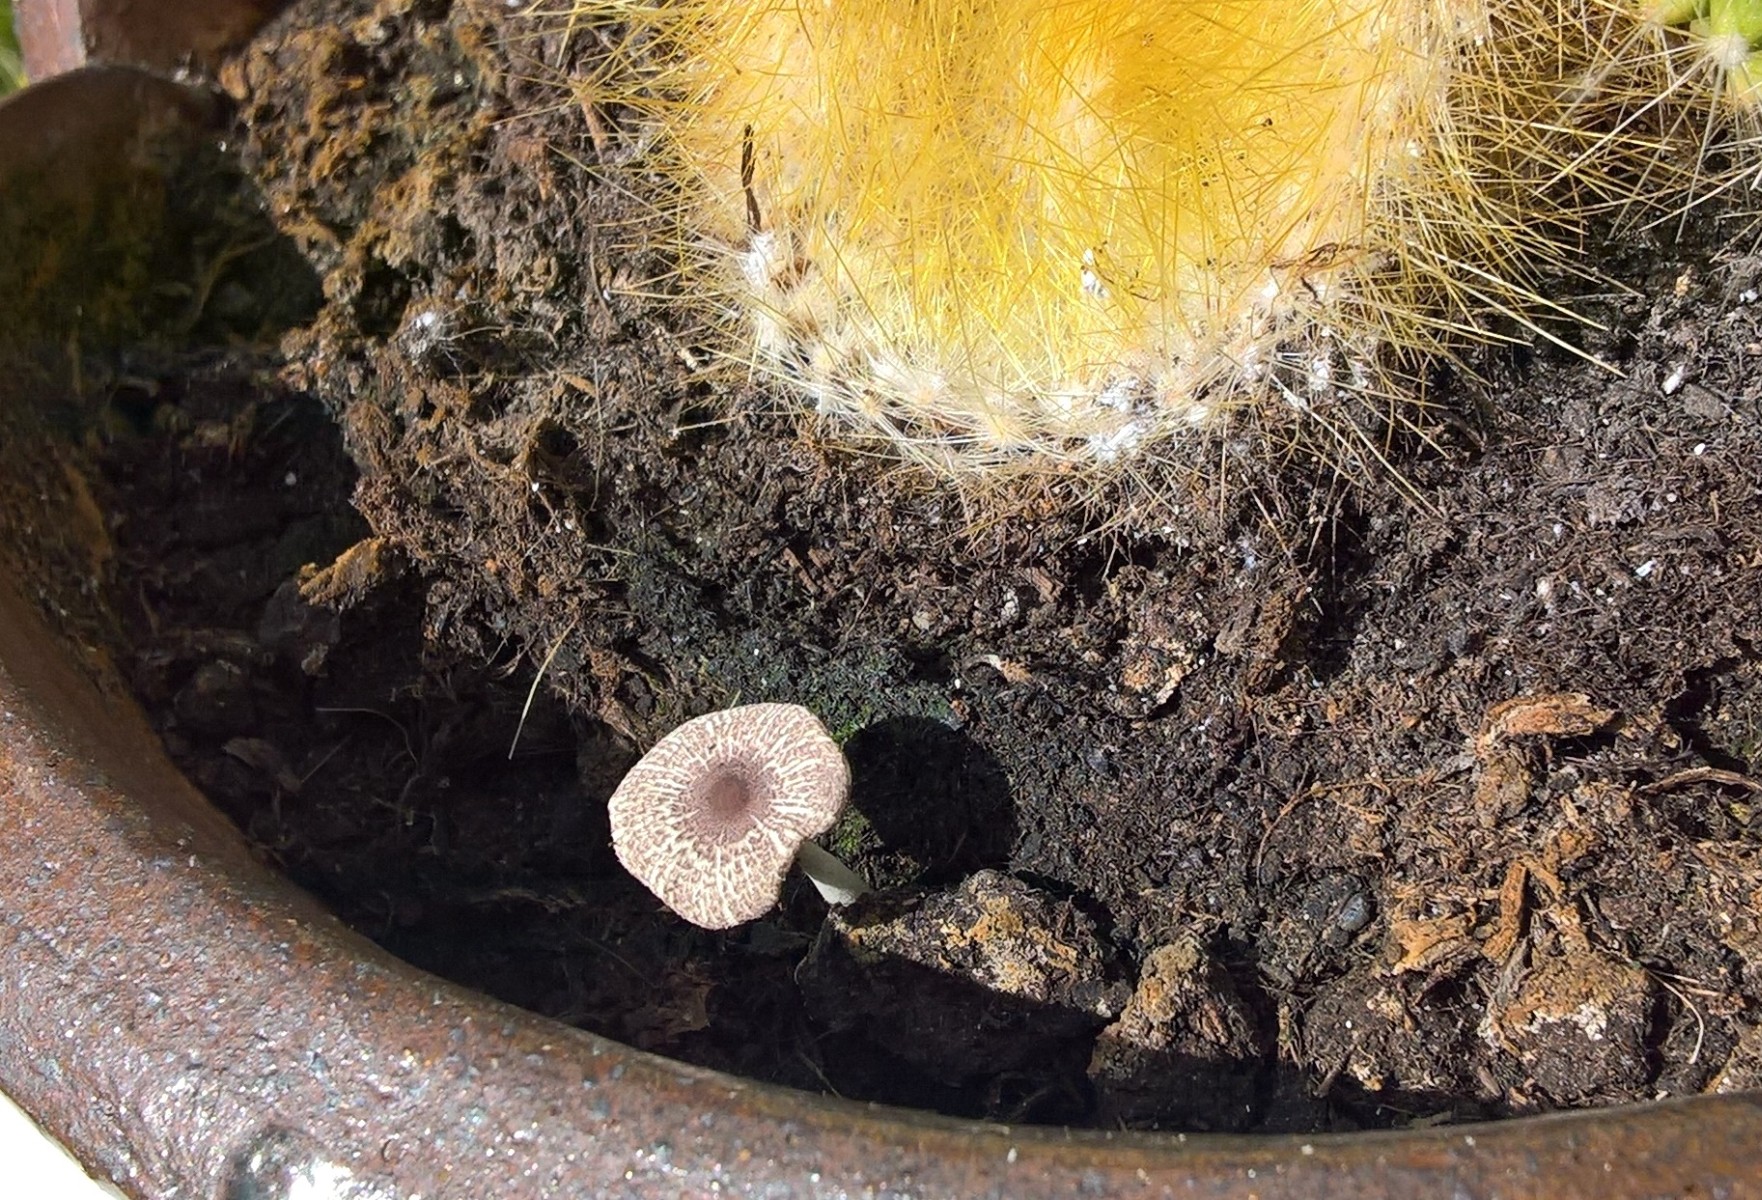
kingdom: Fungi
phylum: Basidiomycota
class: Agaricomycetes
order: Agaricales
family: Agaricaceae
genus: Leucocoprinus
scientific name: Leucocoprinus ianthinus
